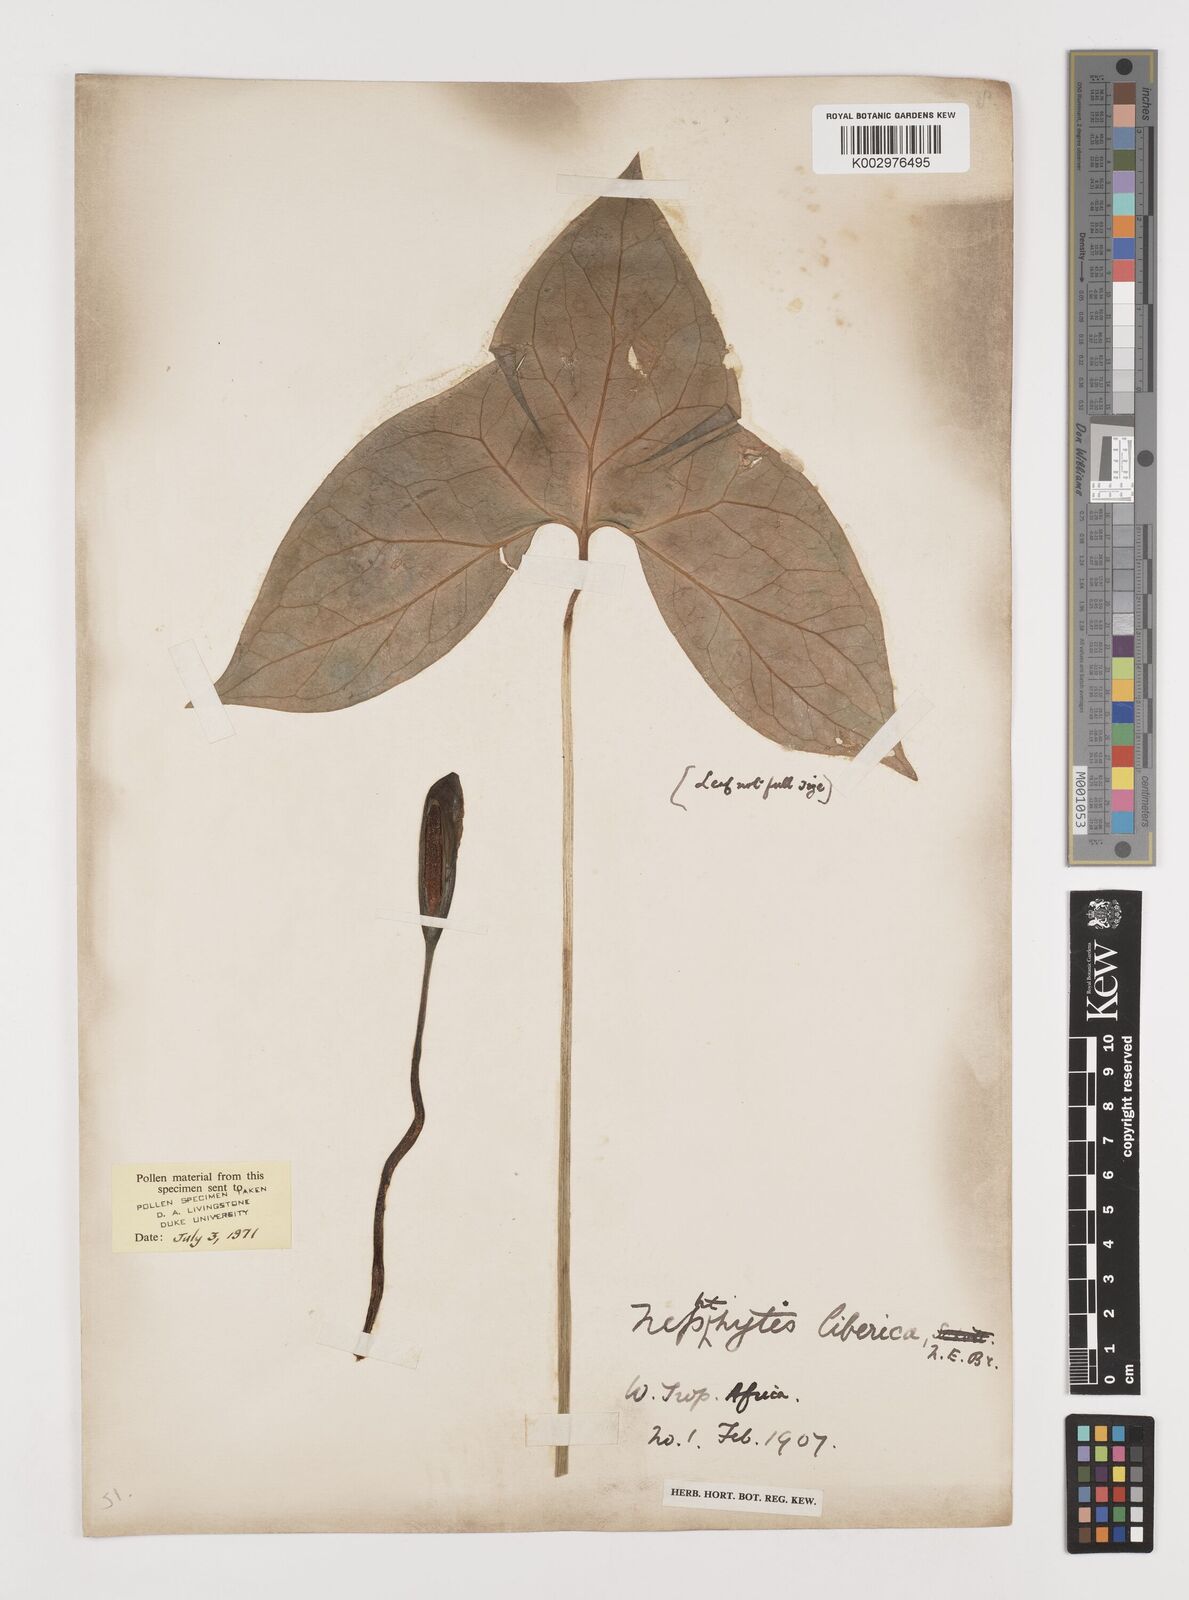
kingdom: Plantae
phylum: Tracheophyta
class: Liliopsida
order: Alismatales
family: Araceae
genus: Nephthytis
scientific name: Nephthytis afzelii
